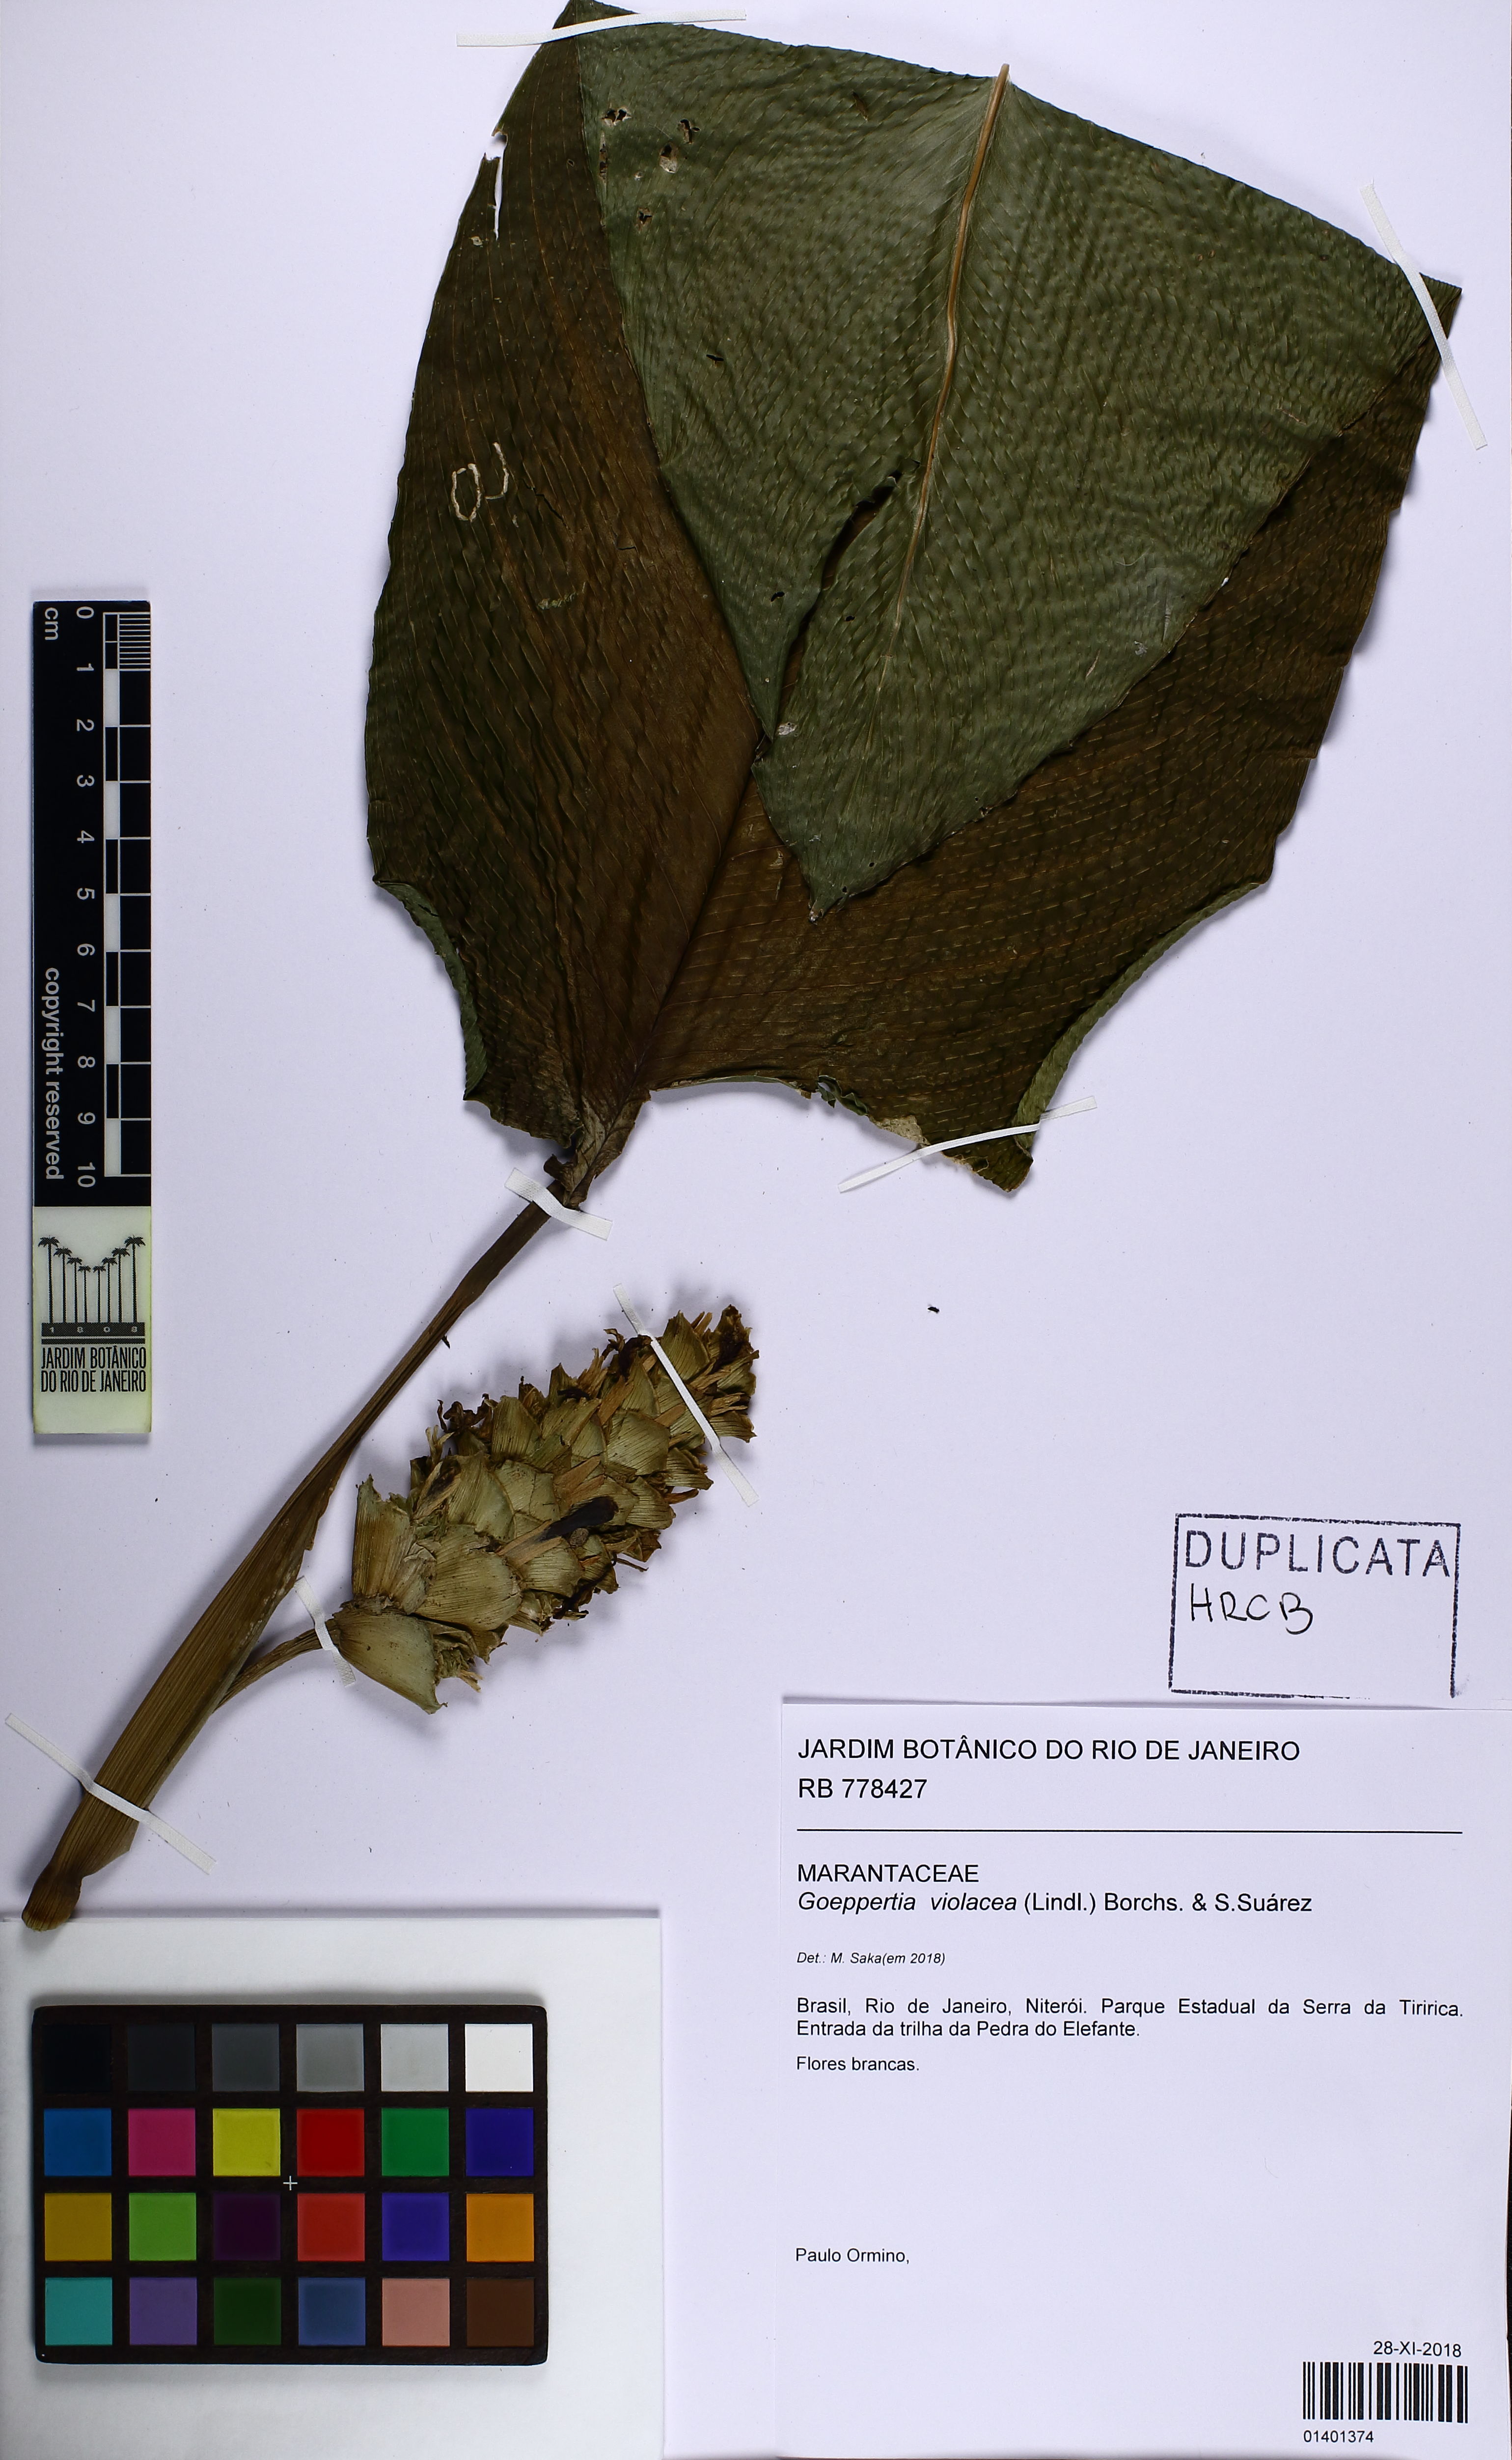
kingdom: Plantae
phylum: Tracheophyta
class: Liliopsida
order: Zingiberales
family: Marantaceae
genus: Goeppertia
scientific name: Goeppertia violacea
